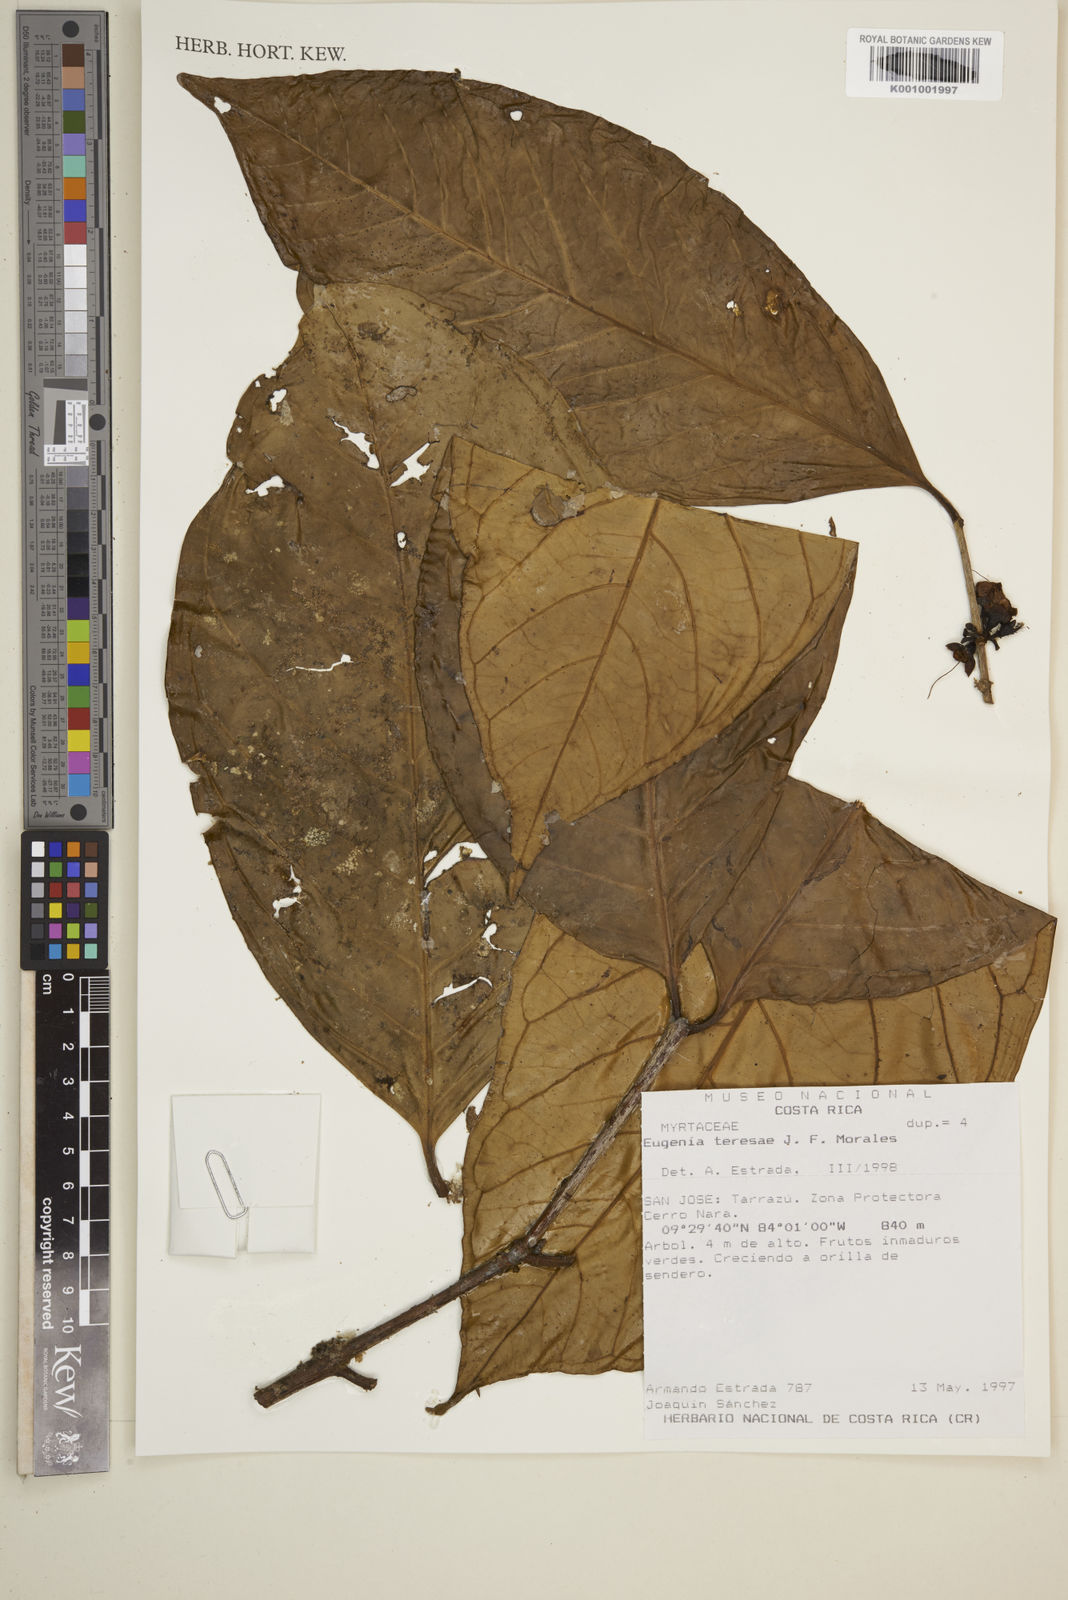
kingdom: Plantae
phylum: Tracheophyta
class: Magnoliopsida
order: Myrtales
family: Myrtaceae
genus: Eugenia
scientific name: Eugenia teresae
